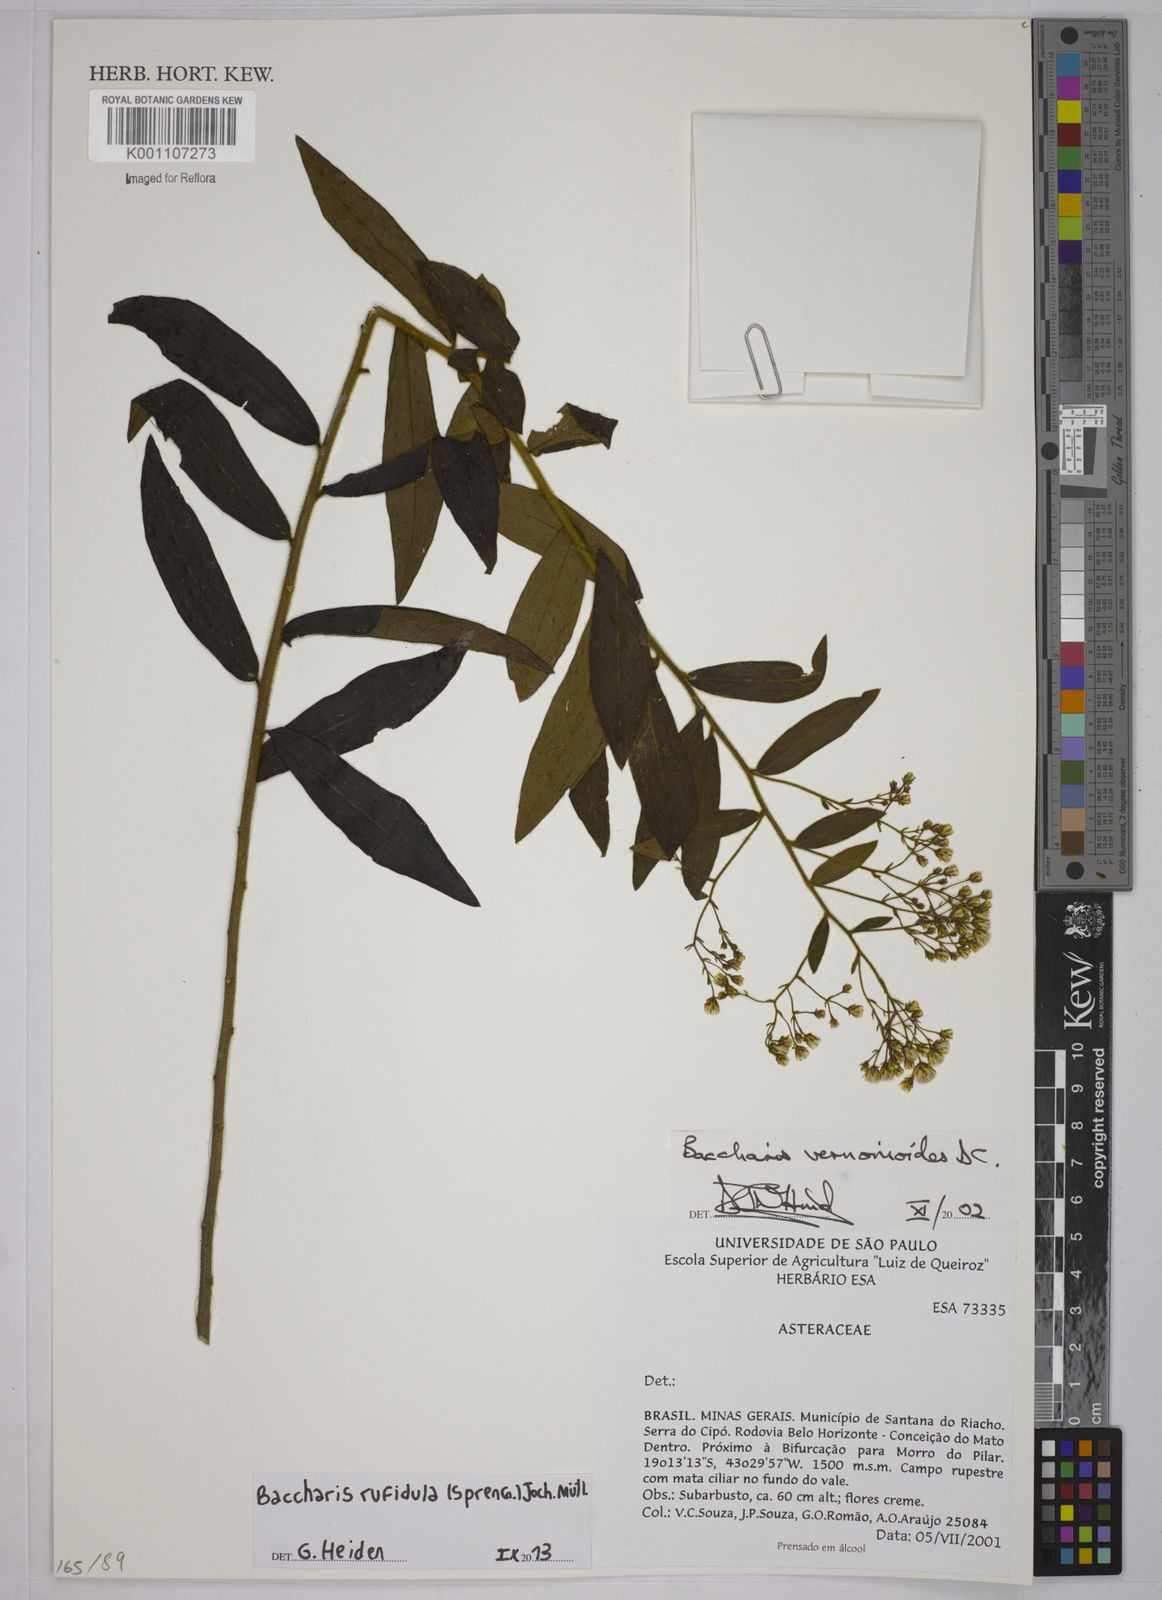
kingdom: Plantae
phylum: Tracheophyta
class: Magnoliopsida
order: Asterales
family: Asteraceae
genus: Baccharis
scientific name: Baccharis
